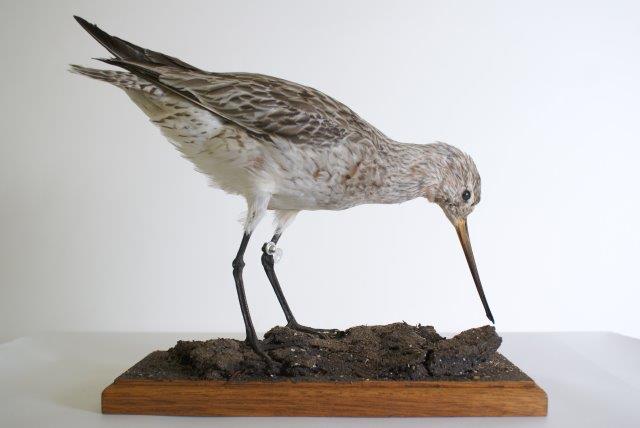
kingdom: Animalia
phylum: Chordata
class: Aves
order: Charadriiformes
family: Scolopacidae
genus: Limosa
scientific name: Limosa lapponica
